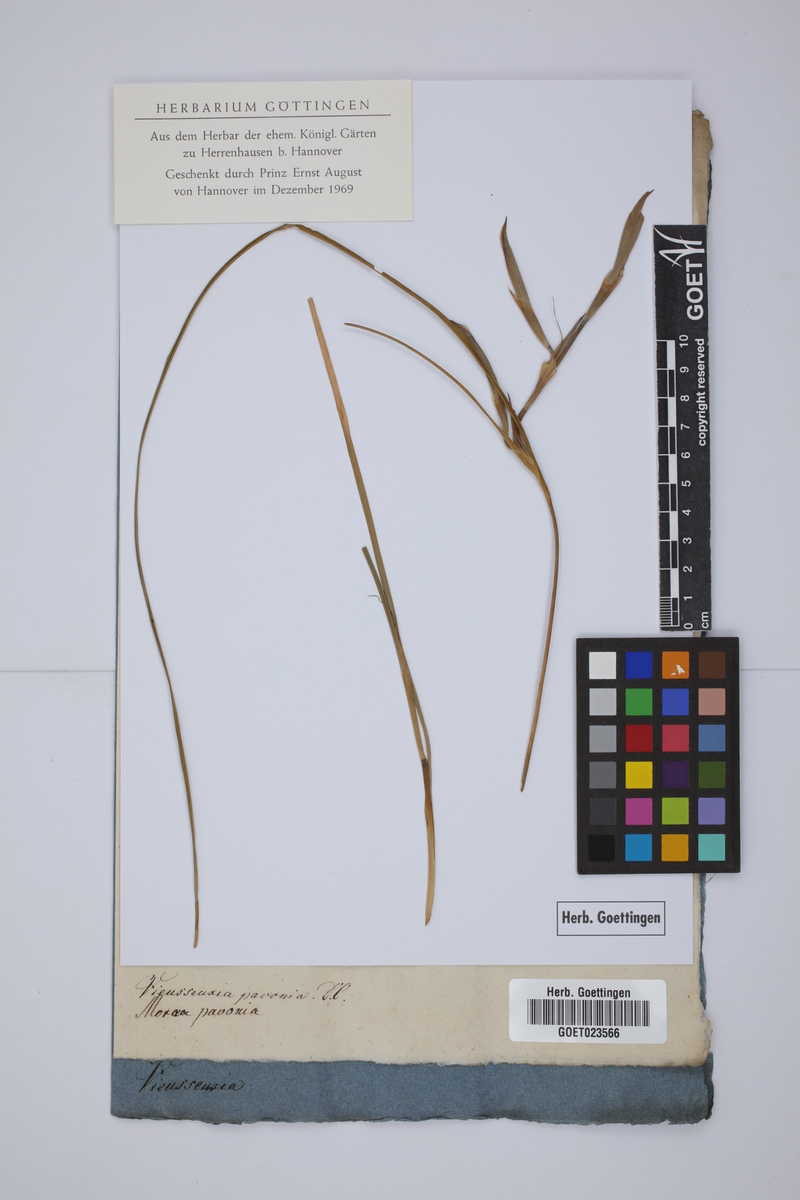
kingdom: Plantae
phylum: Tracheophyta
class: Liliopsida
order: Asparagales
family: Iridaceae
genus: Tigridia
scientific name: Tigridia pavonia
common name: Peacock-flower
